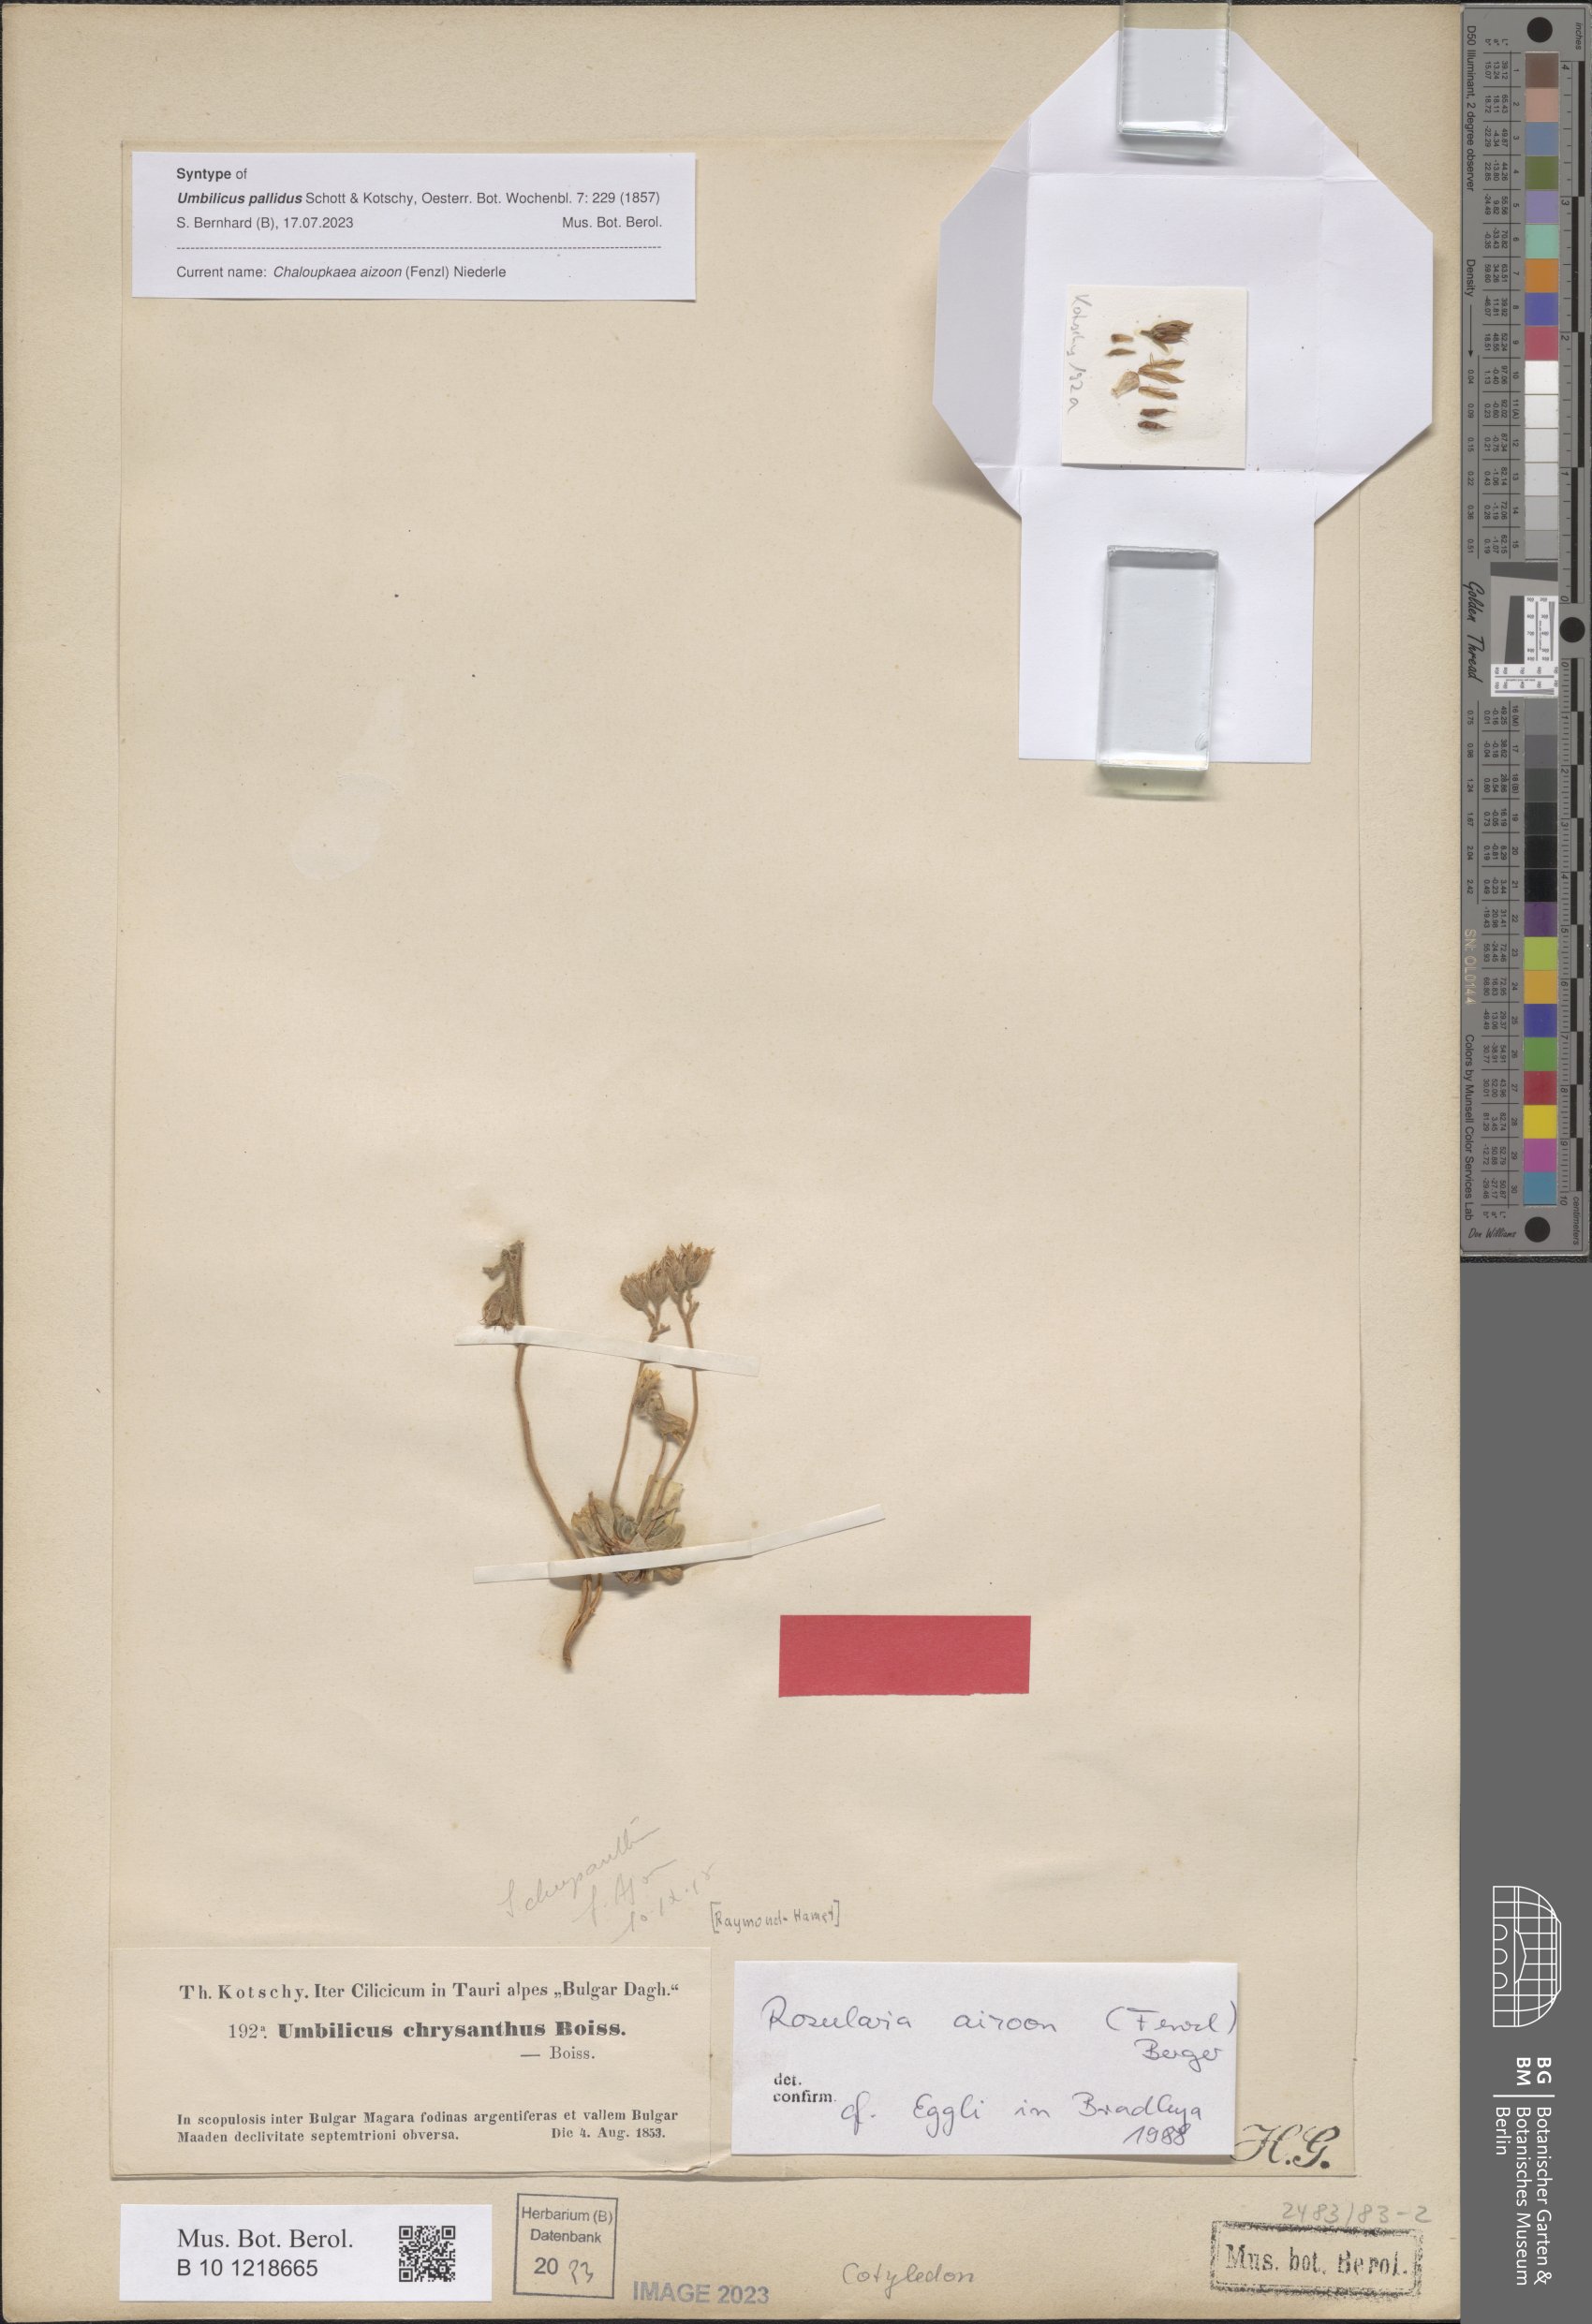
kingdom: Plantae
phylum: Tracheophyta
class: Magnoliopsida
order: Saxifragales
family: Crassulaceae
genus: Prometheum
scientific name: Prometheum aizoon
